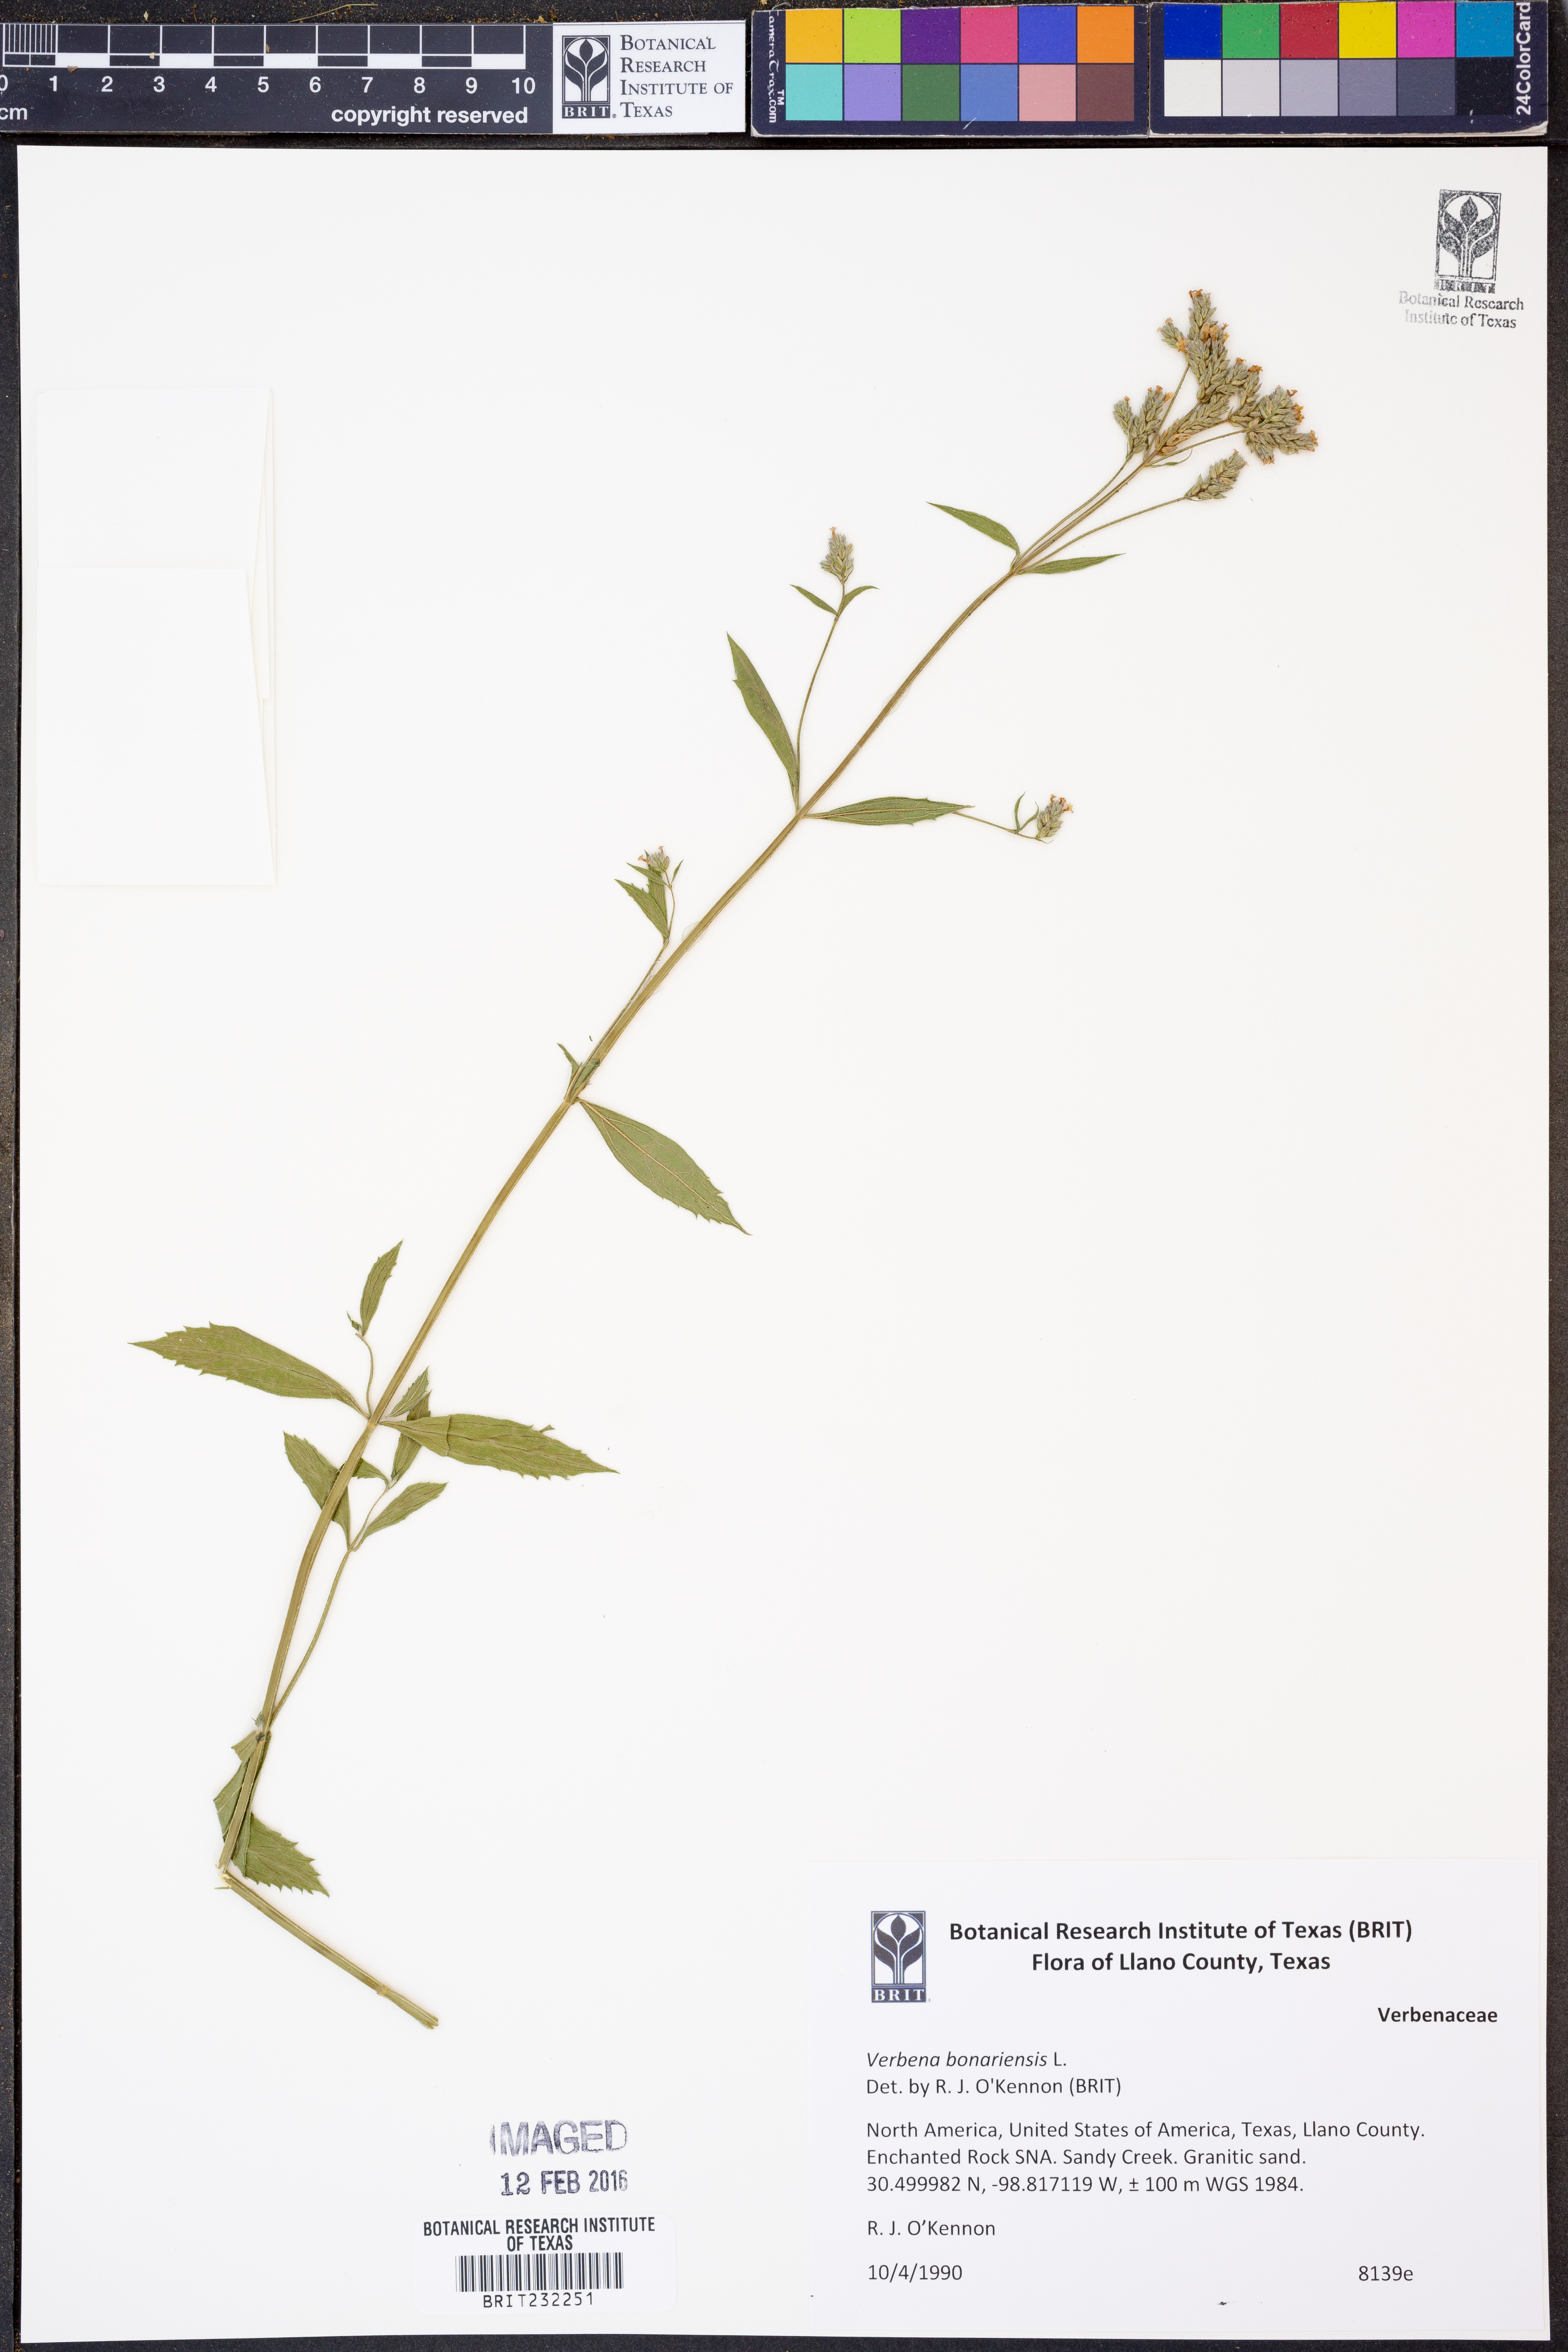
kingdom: Plantae
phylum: Tracheophyta
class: Magnoliopsida
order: Lamiales
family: Verbenaceae
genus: Verbena
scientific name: Verbena bonariensis
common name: Purpletop vervain
